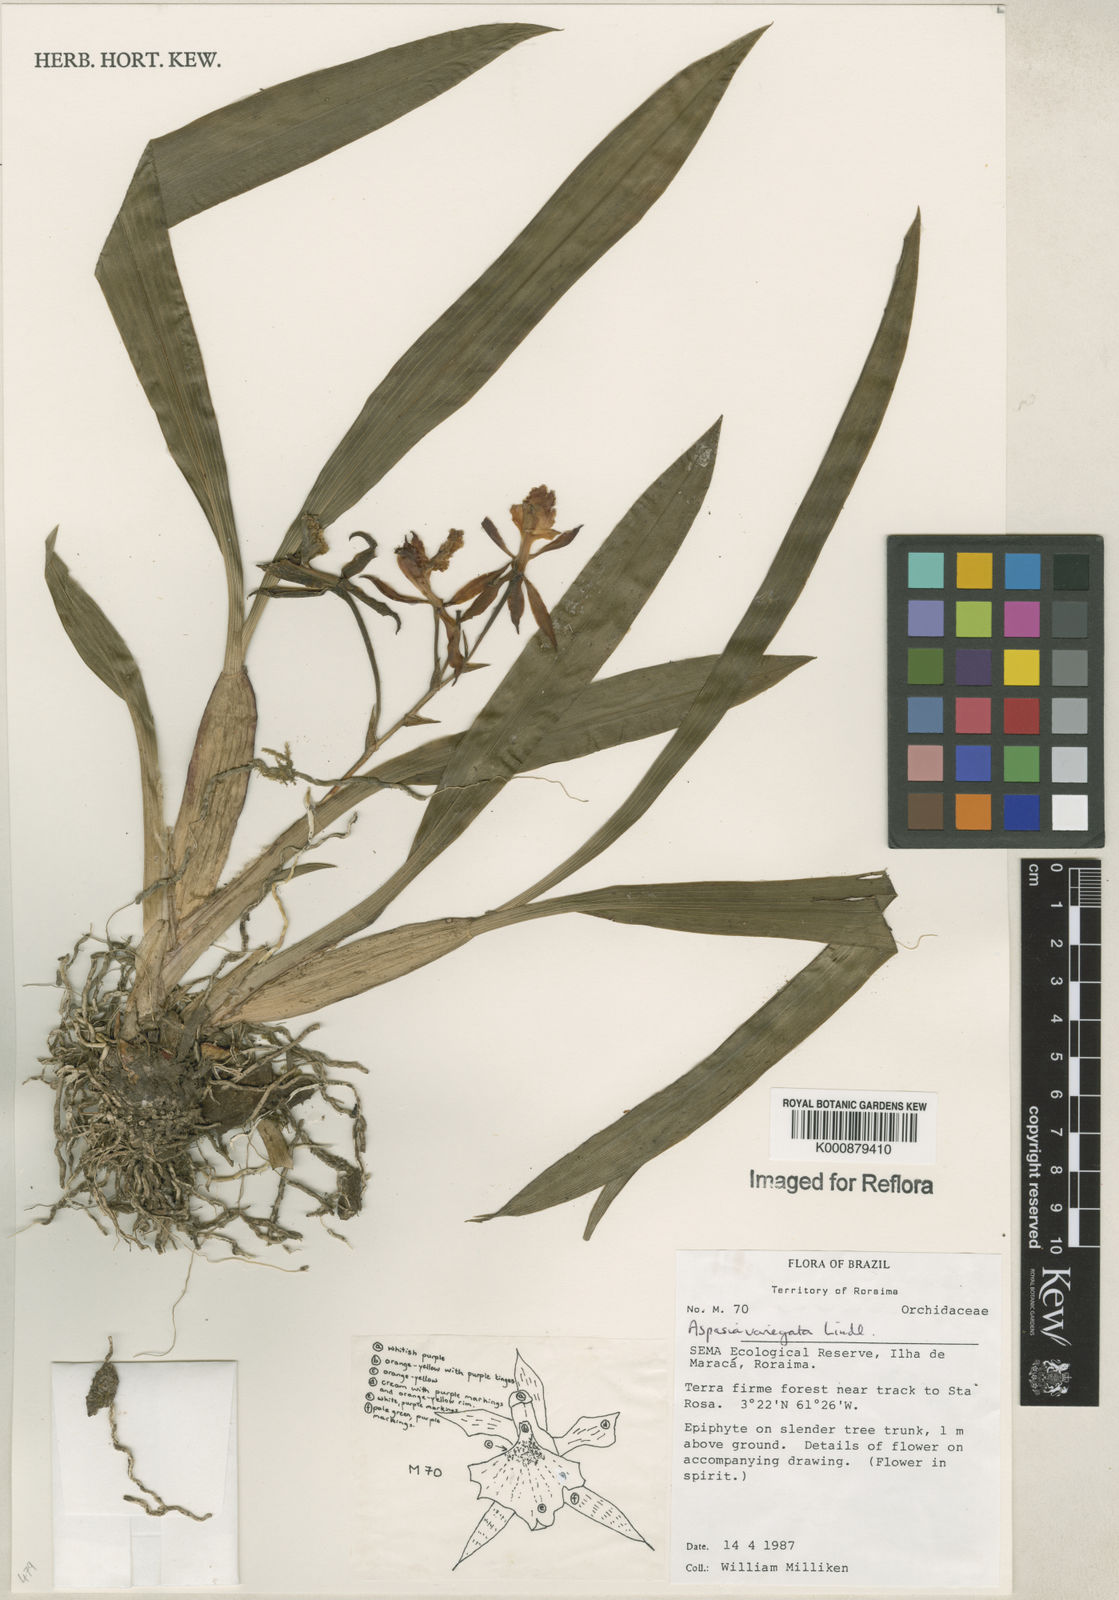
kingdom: Plantae
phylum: Tracheophyta
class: Liliopsida
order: Asparagales
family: Orchidaceae
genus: Aspasia
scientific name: Aspasia variegata
